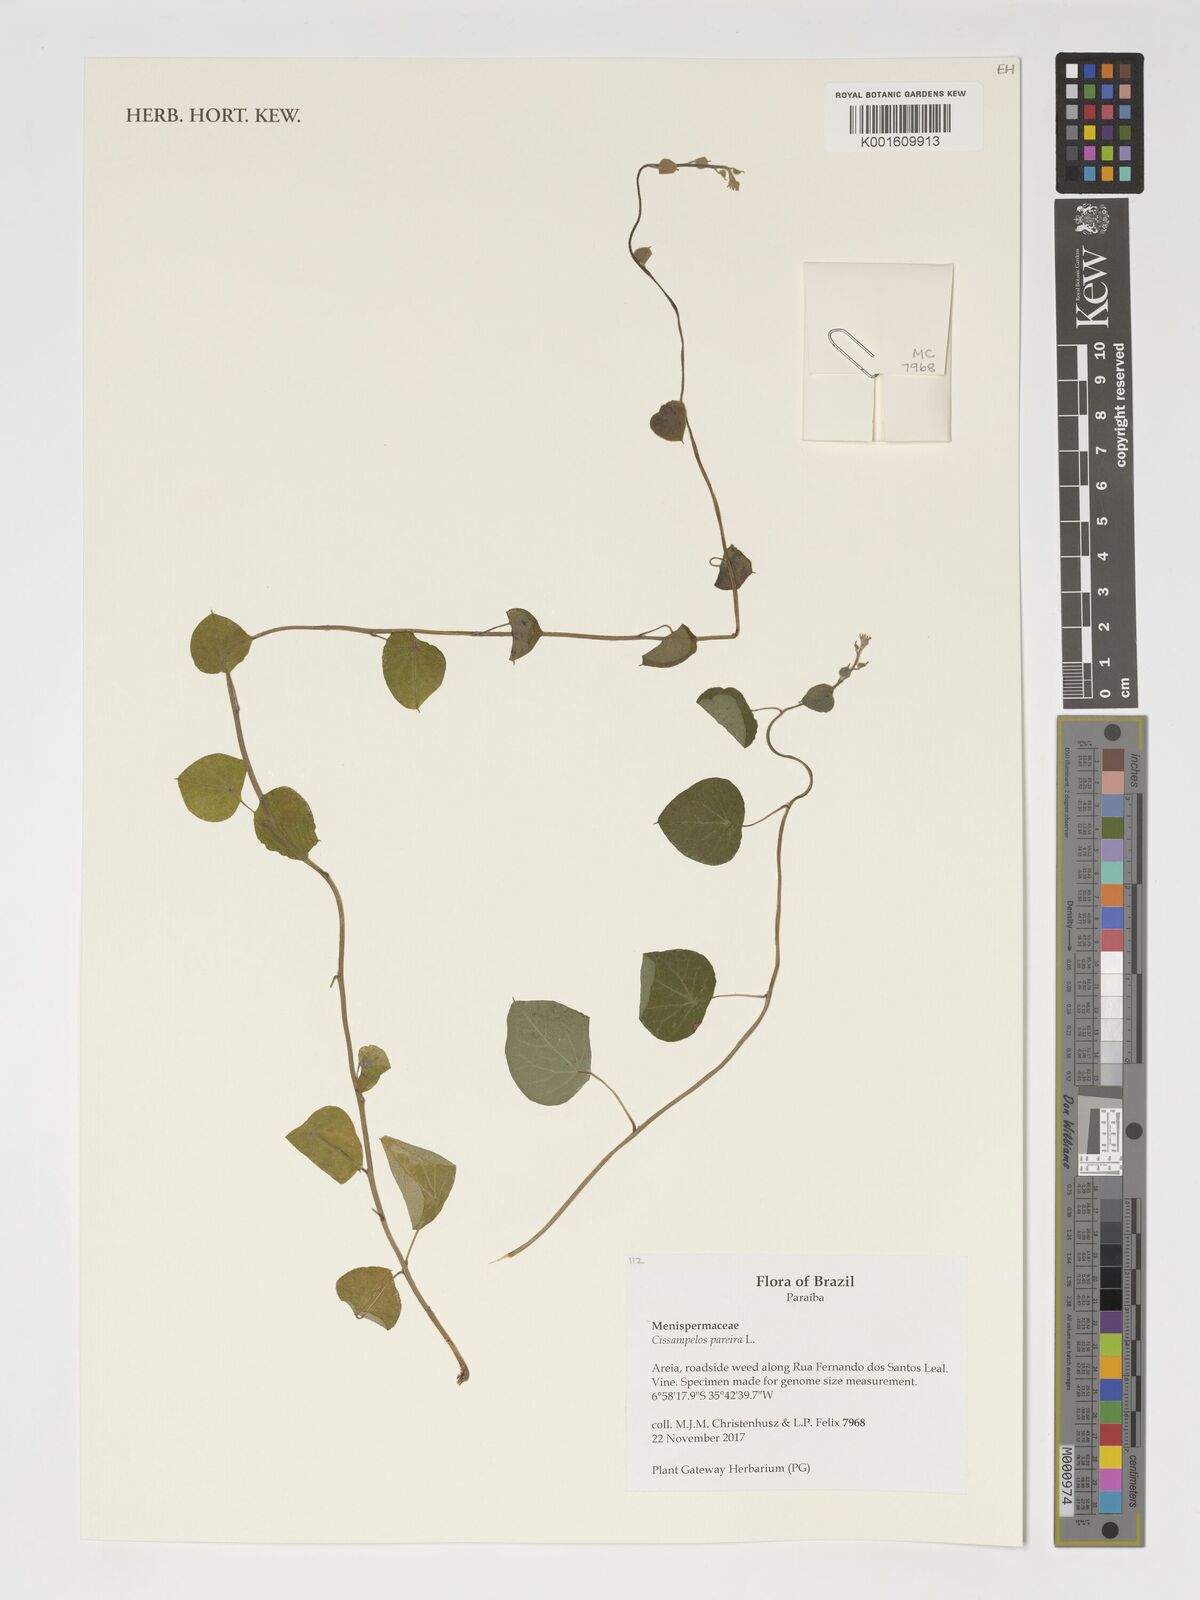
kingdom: Plantae
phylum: Tracheophyta
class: Magnoliopsida
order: Ranunculales
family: Menispermaceae
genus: Cissampelos
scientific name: Cissampelos pareira
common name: Velvetleaf
